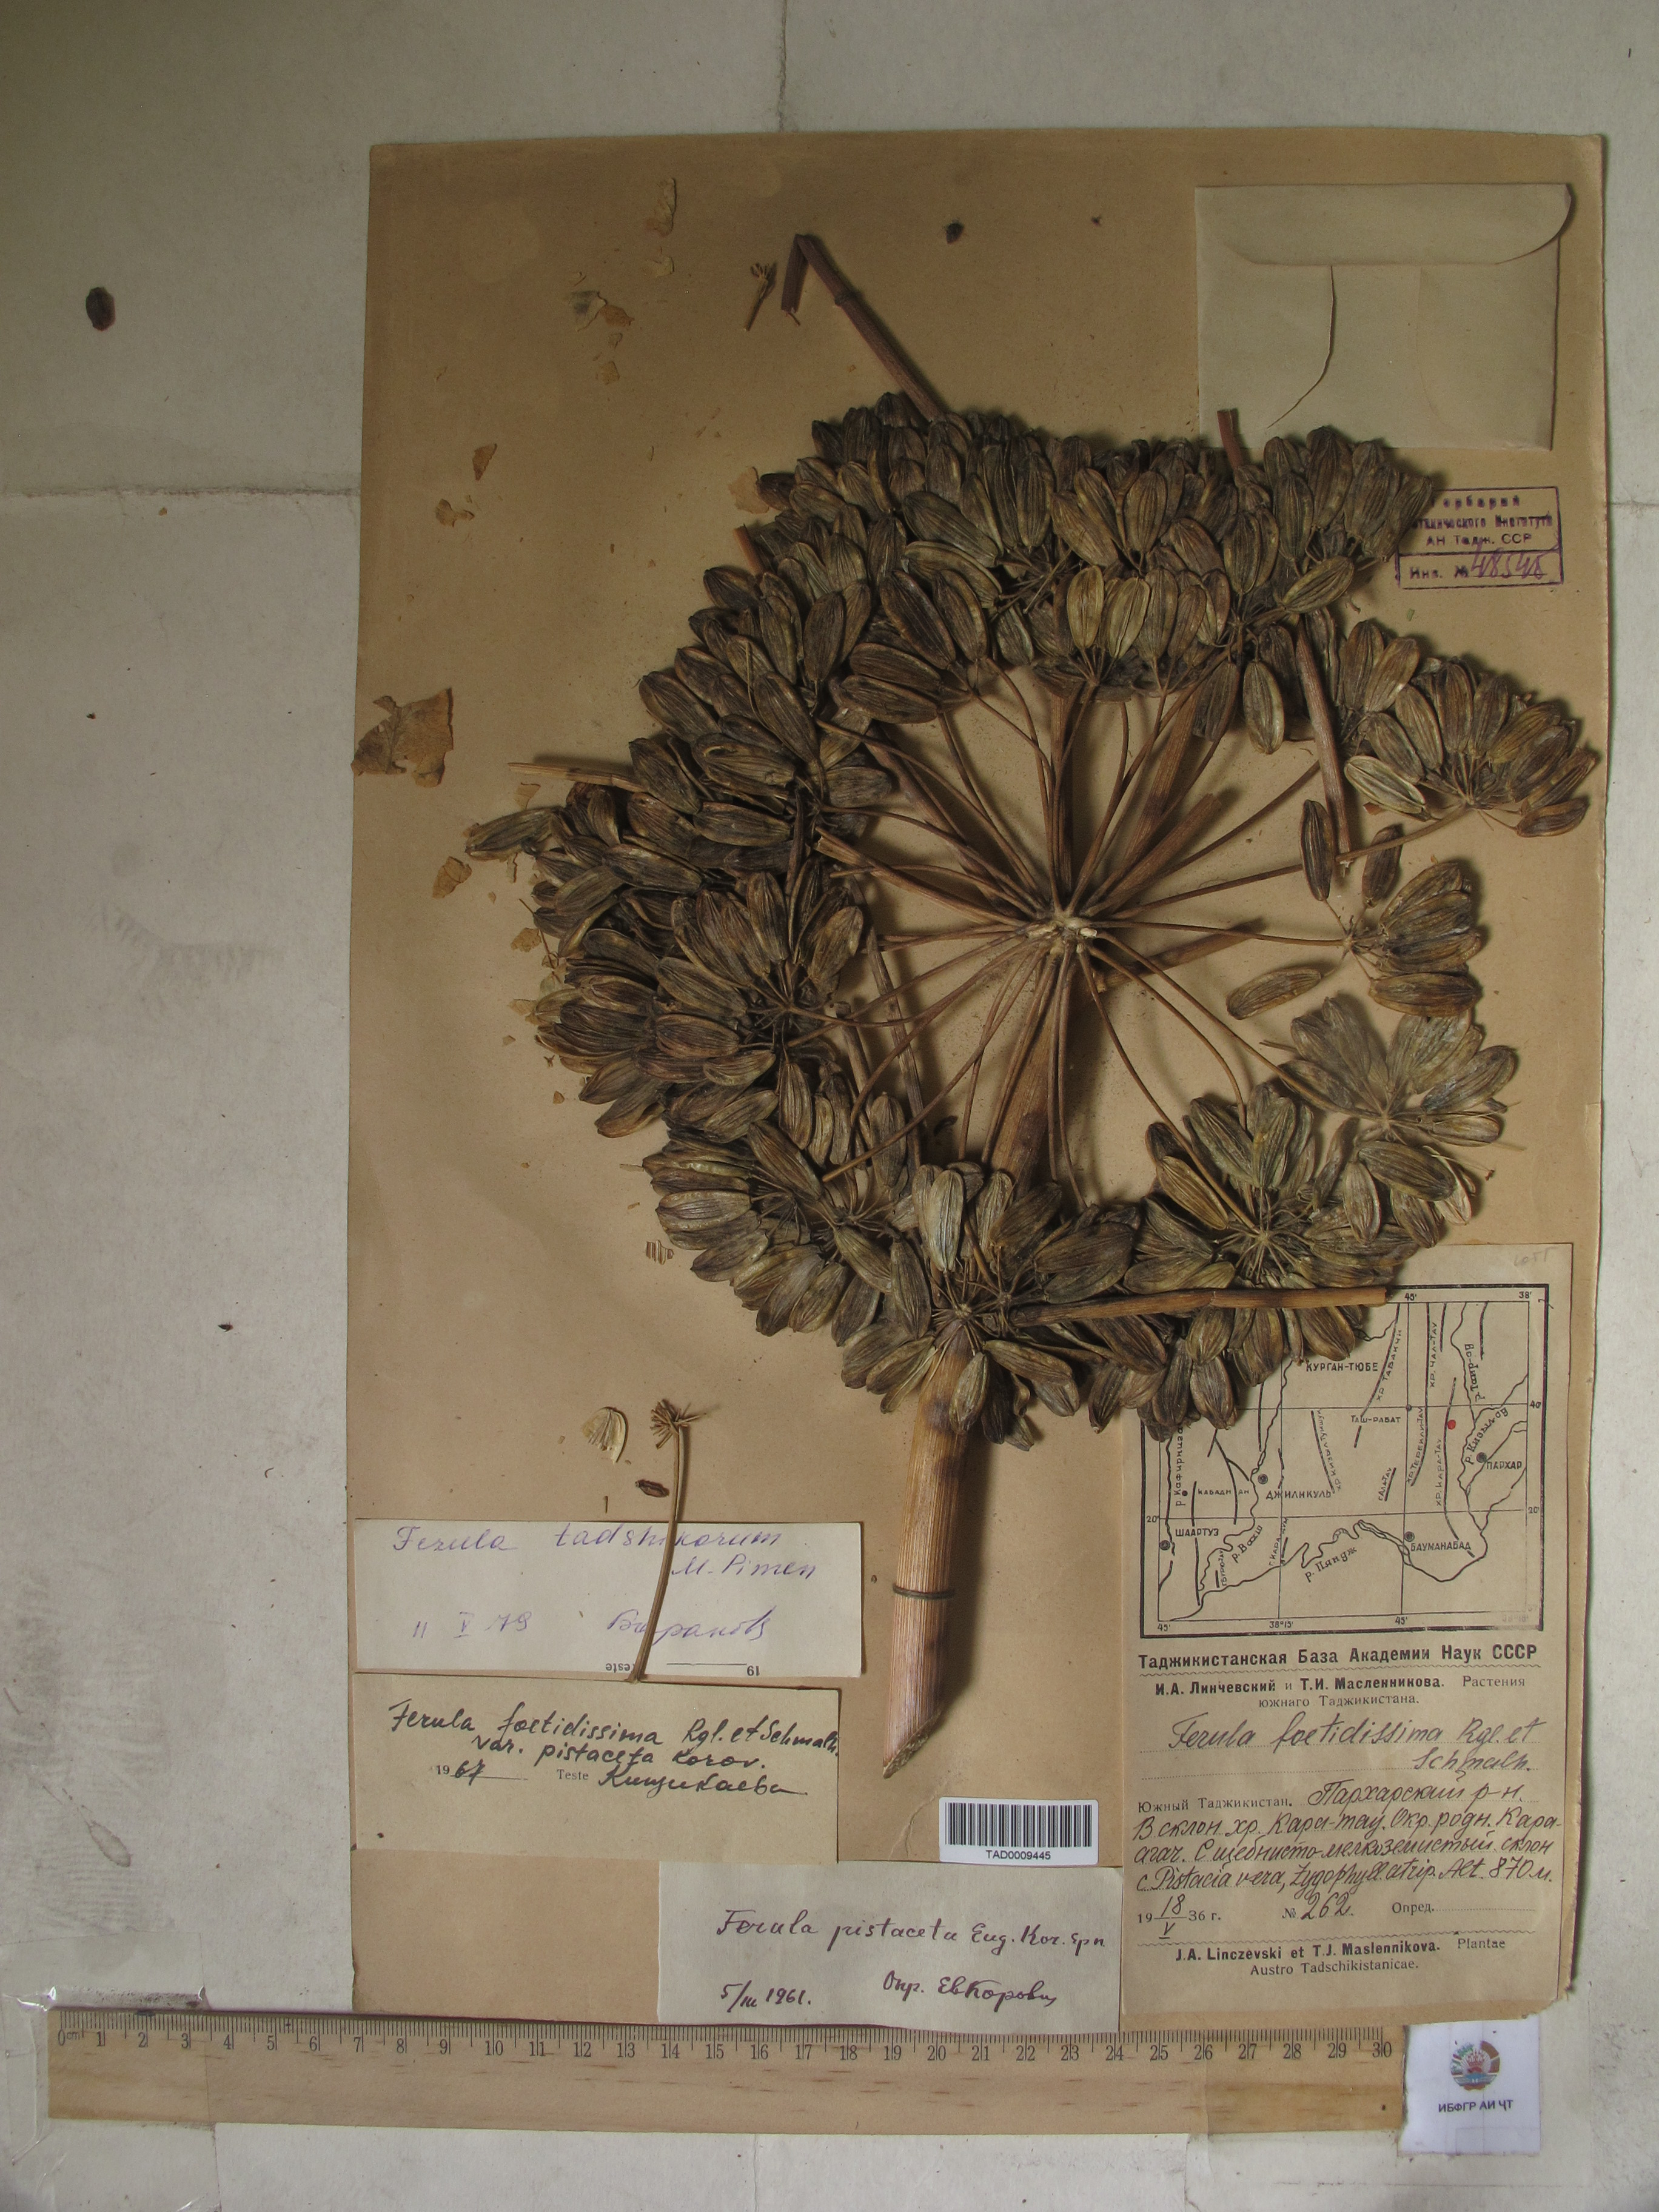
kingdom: Plantae
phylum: Tracheophyta
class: Magnoliopsida
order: Apiales
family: Apiaceae
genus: Ferula
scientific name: Ferula tadshikorum
